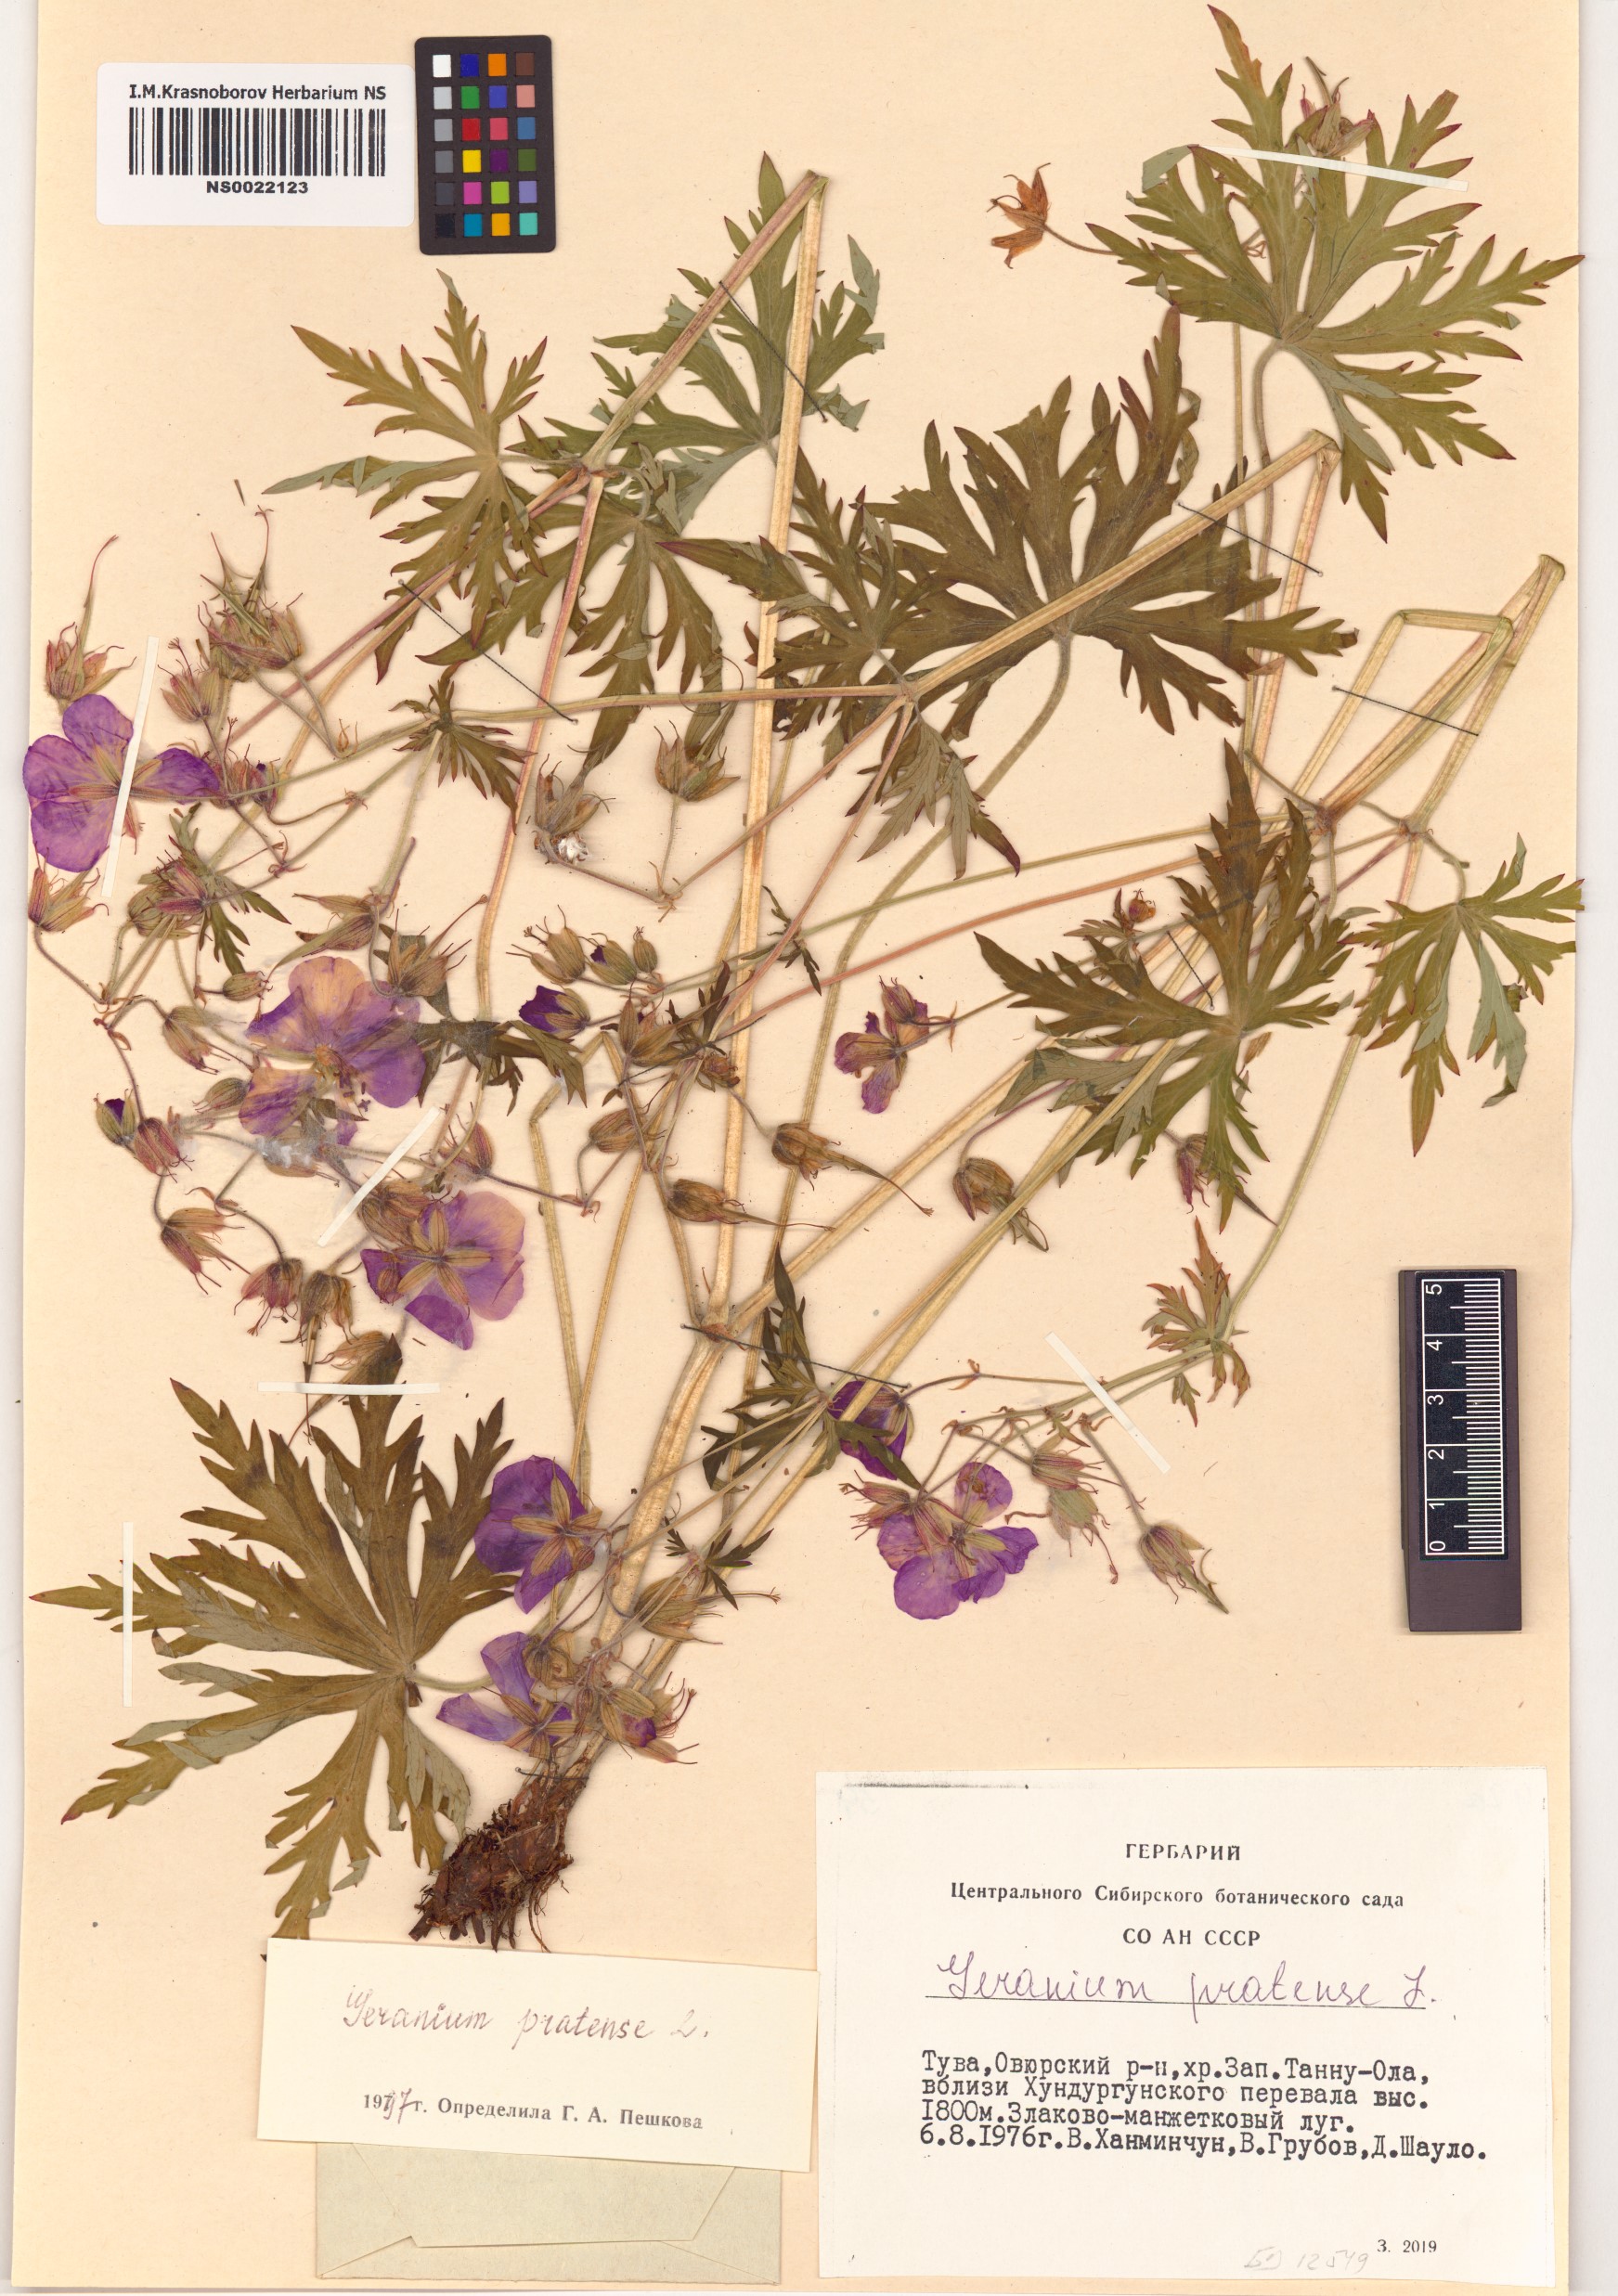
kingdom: Plantae
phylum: Tracheophyta
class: Magnoliopsida
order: Geraniales
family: Geraniaceae
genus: Geranium
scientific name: Geranium pratense
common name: Meadow crane's-bill
